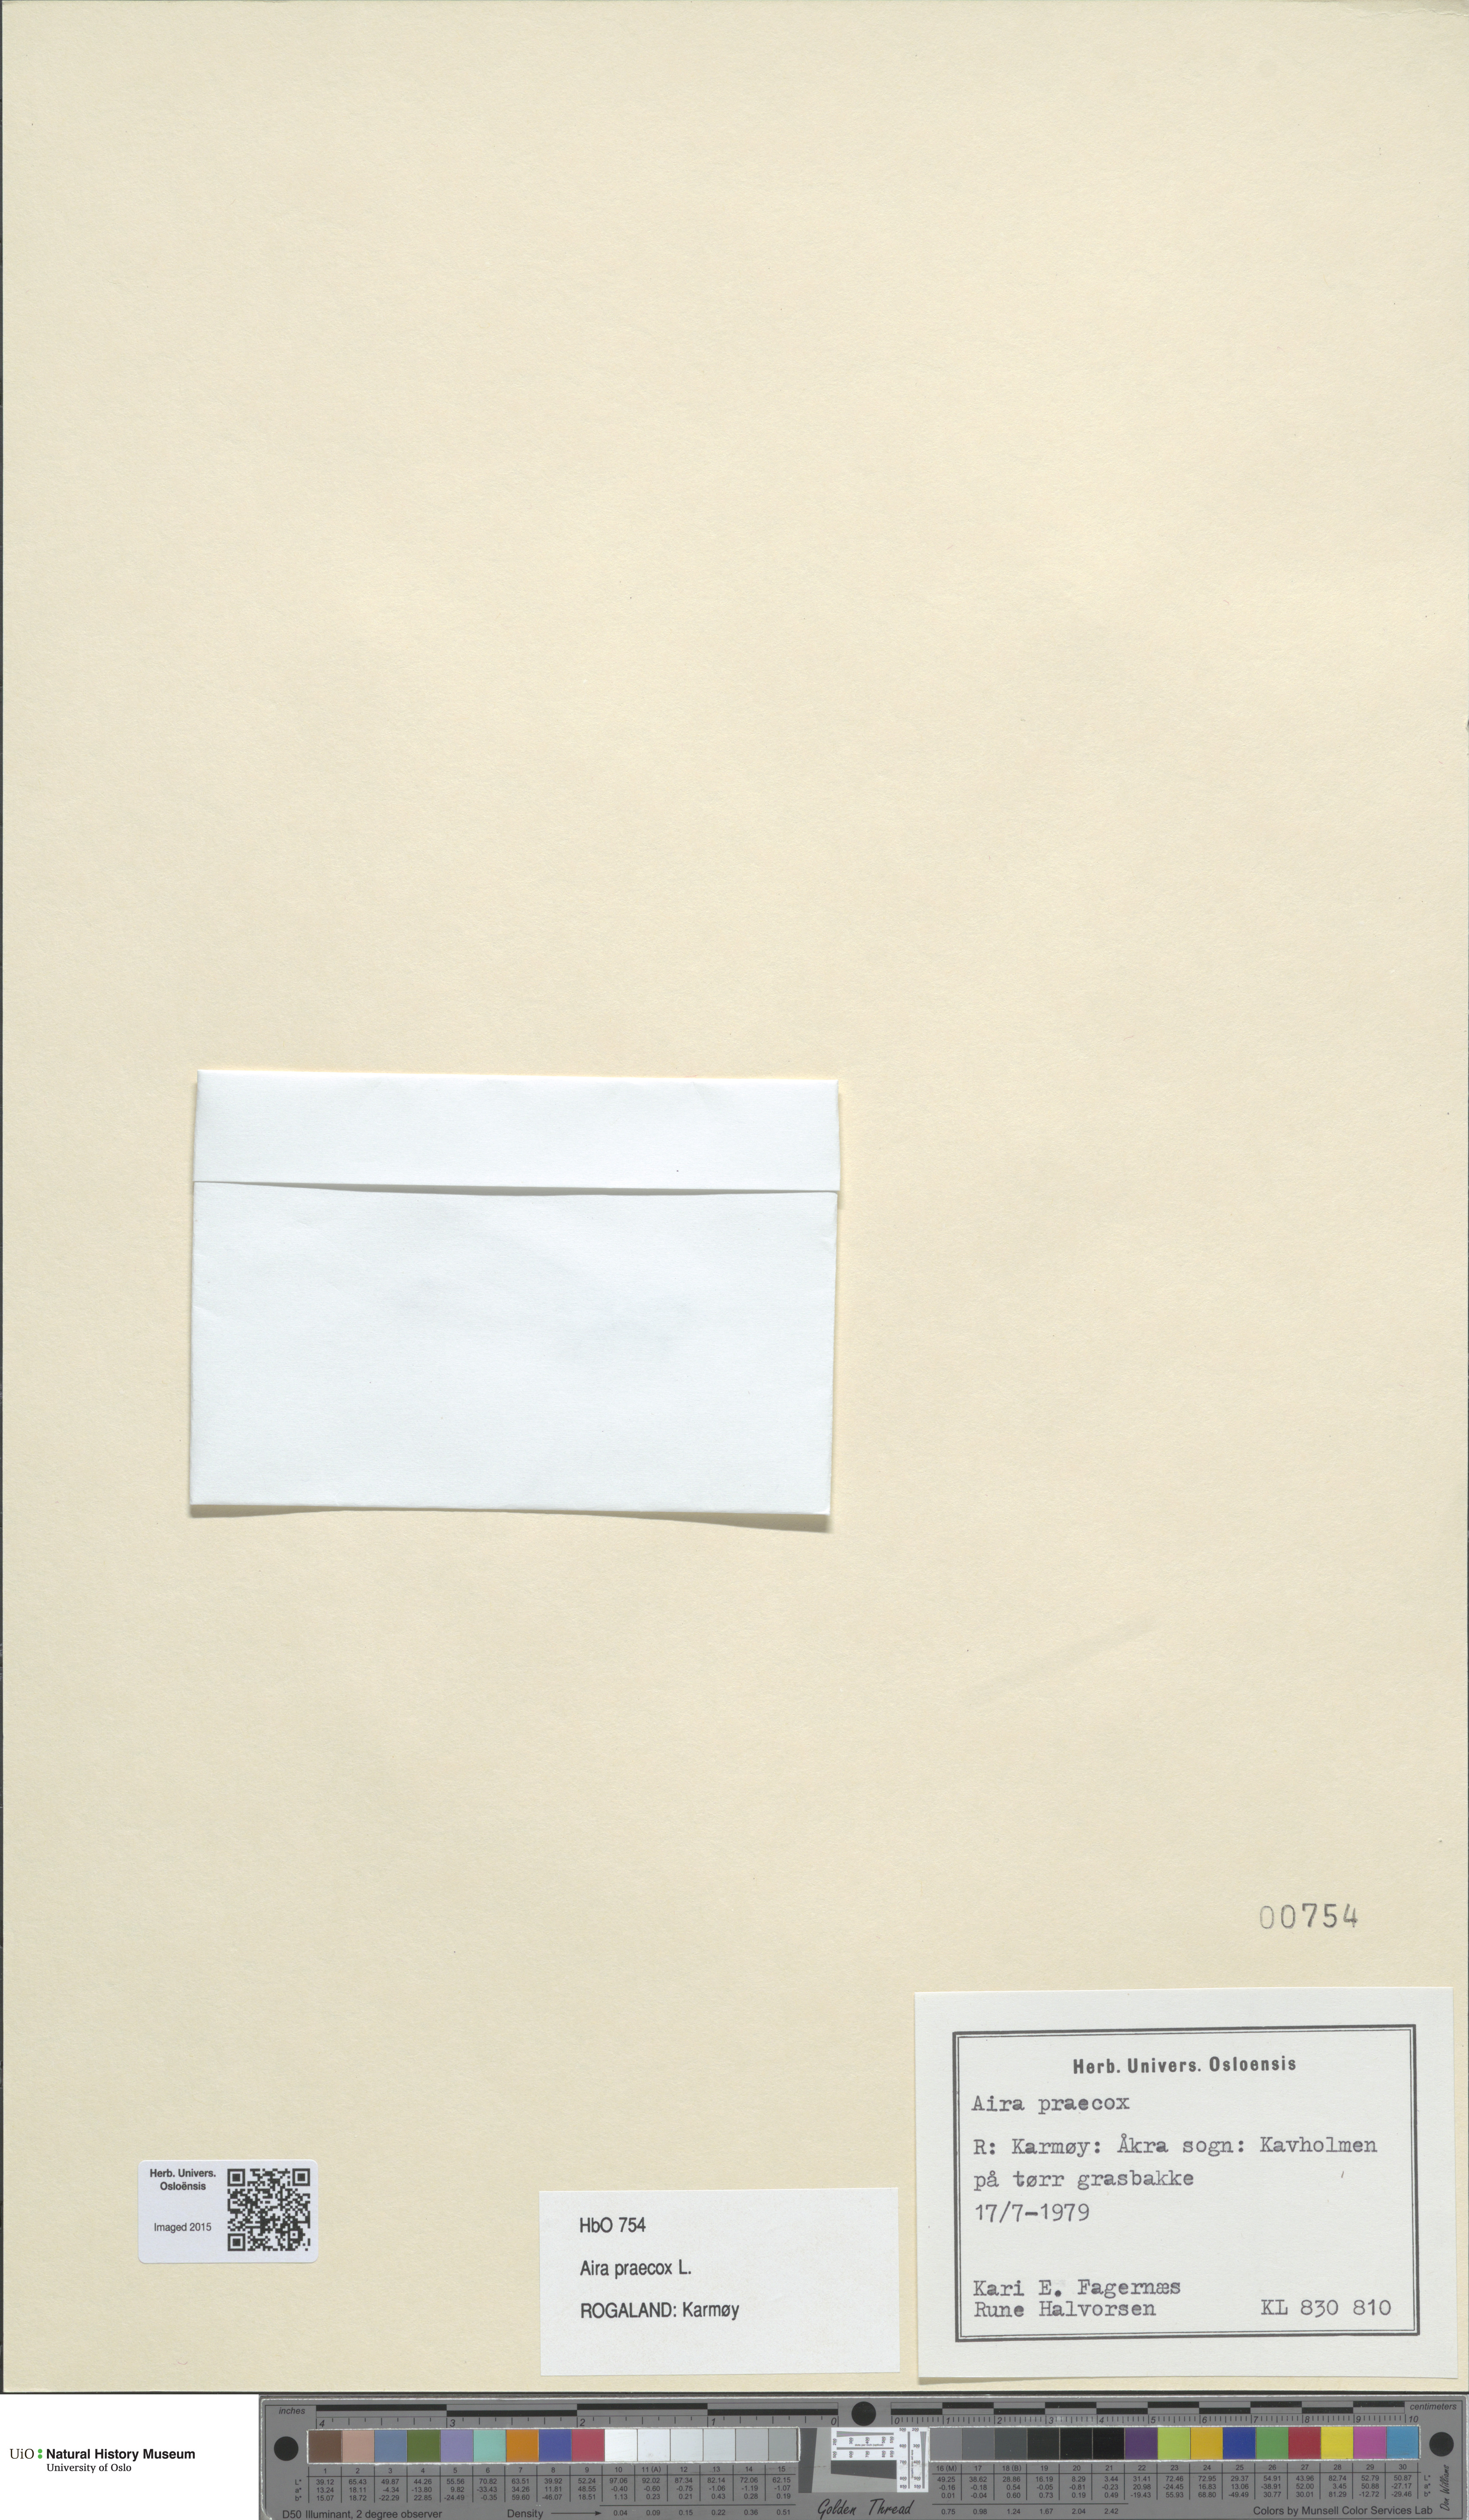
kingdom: Plantae
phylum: Tracheophyta
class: Liliopsida
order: Poales
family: Poaceae
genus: Aira
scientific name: Aira praecox
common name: Early hair-grass
